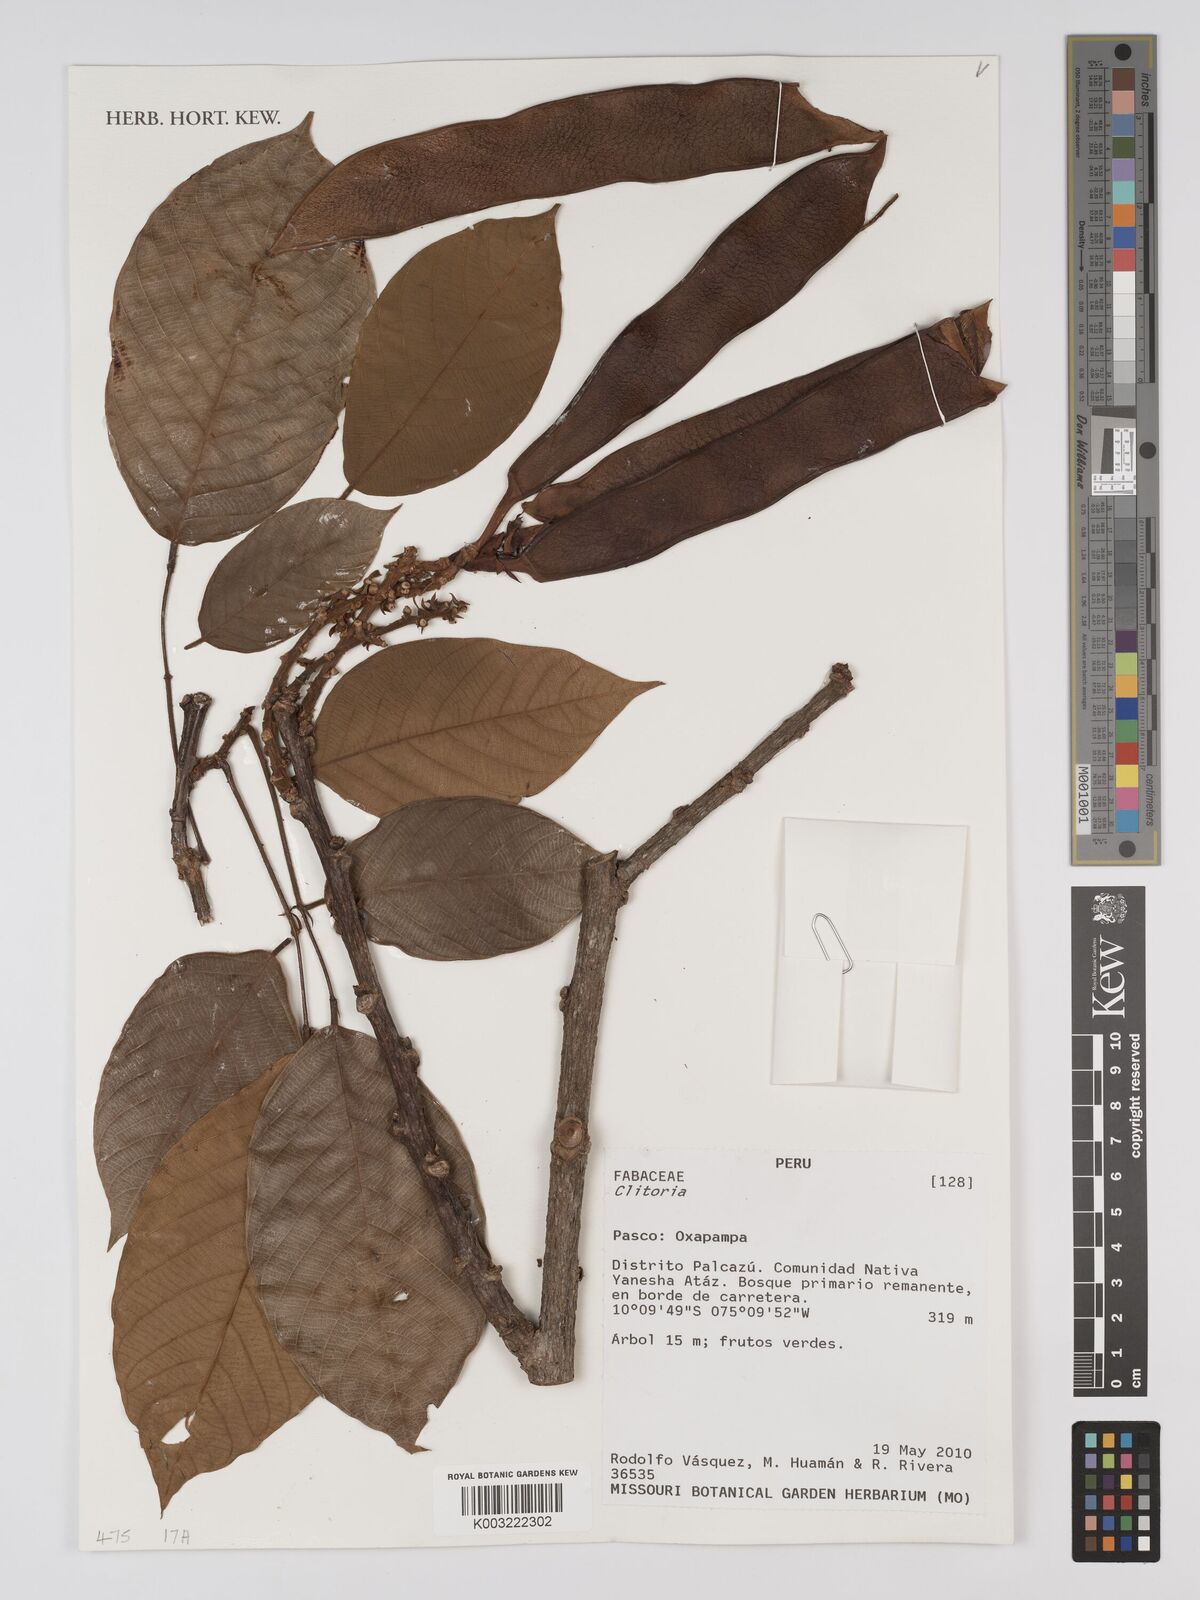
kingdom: Plantae
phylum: Tracheophyta
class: Magnoliopsida
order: Fabales
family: Fabaceae
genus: Clitoria
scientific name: Clitoria
